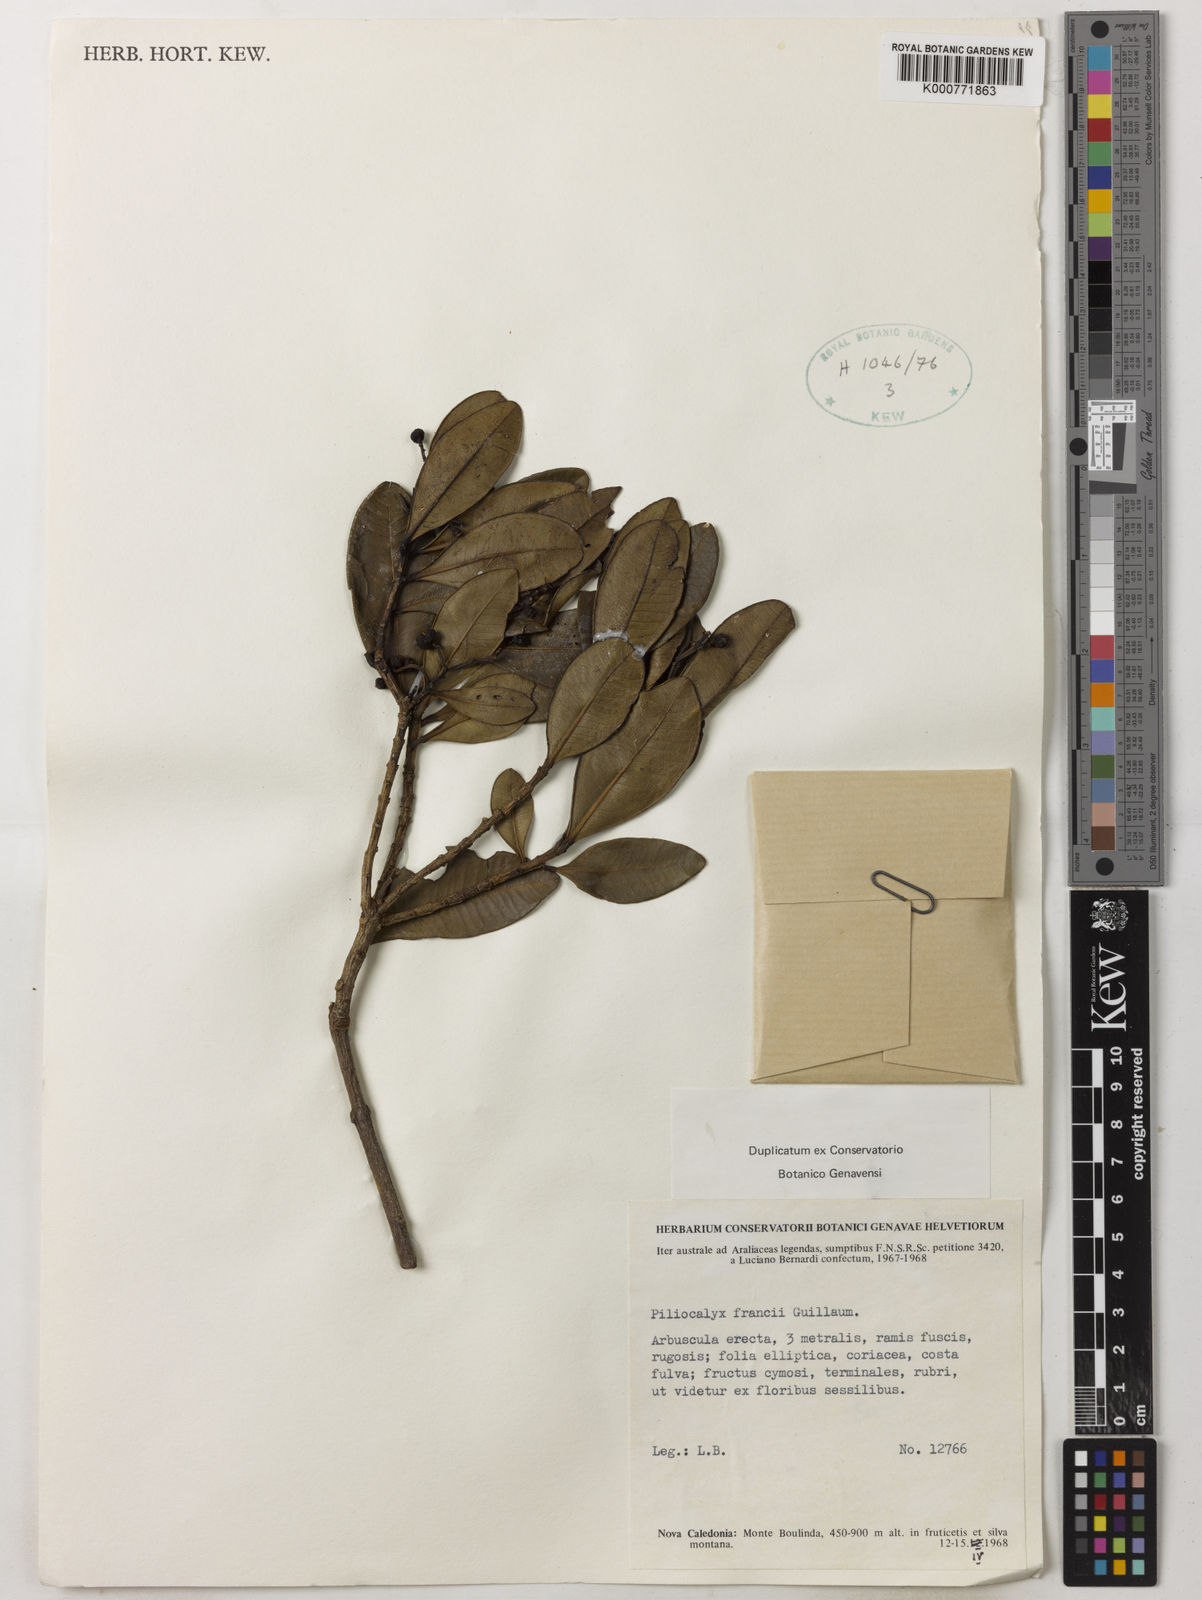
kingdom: Plantae
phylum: Tracheophyta
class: Magnoliopsida
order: Myrtales
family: Myrtaceae
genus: Syzygium
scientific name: Syzygium francii
